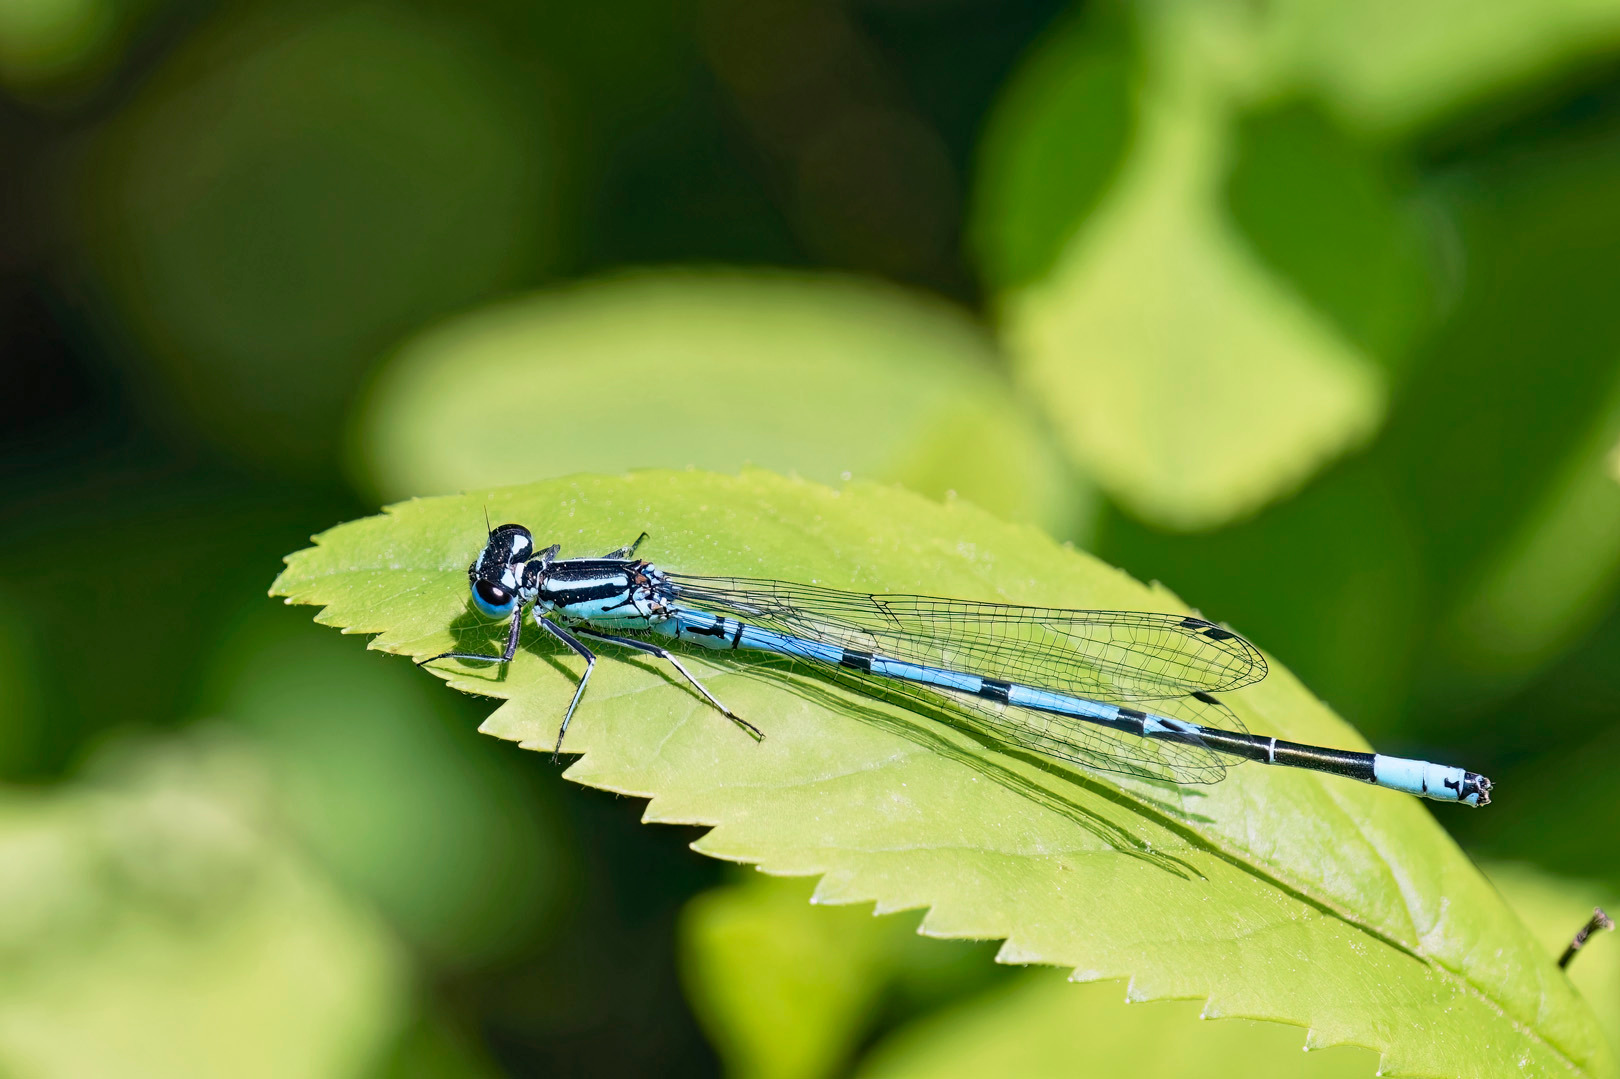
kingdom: Animalia
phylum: Arthropoda
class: Insecta
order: Odonata
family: Coenagrionidae
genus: Coenagrion
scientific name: Coenagrion puella
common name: Hestesko-vandnymfe
